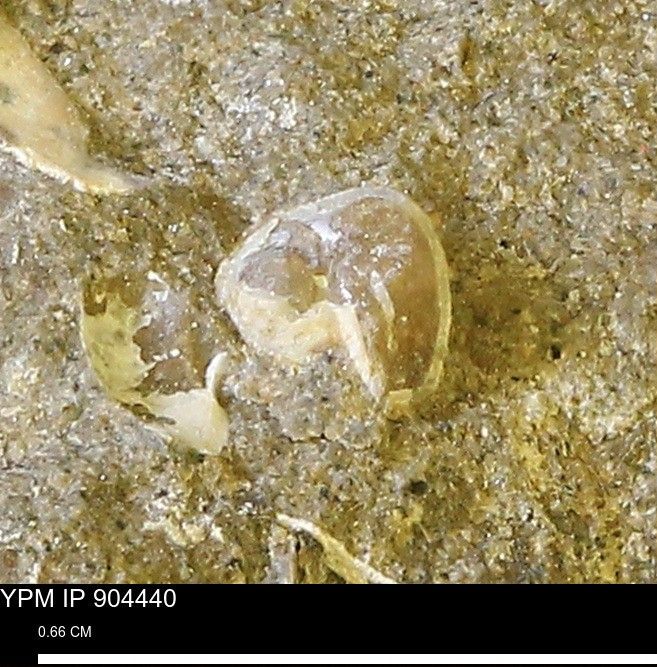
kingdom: Animalia
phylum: Mollusca
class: Bivalvia
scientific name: Bivalvia
